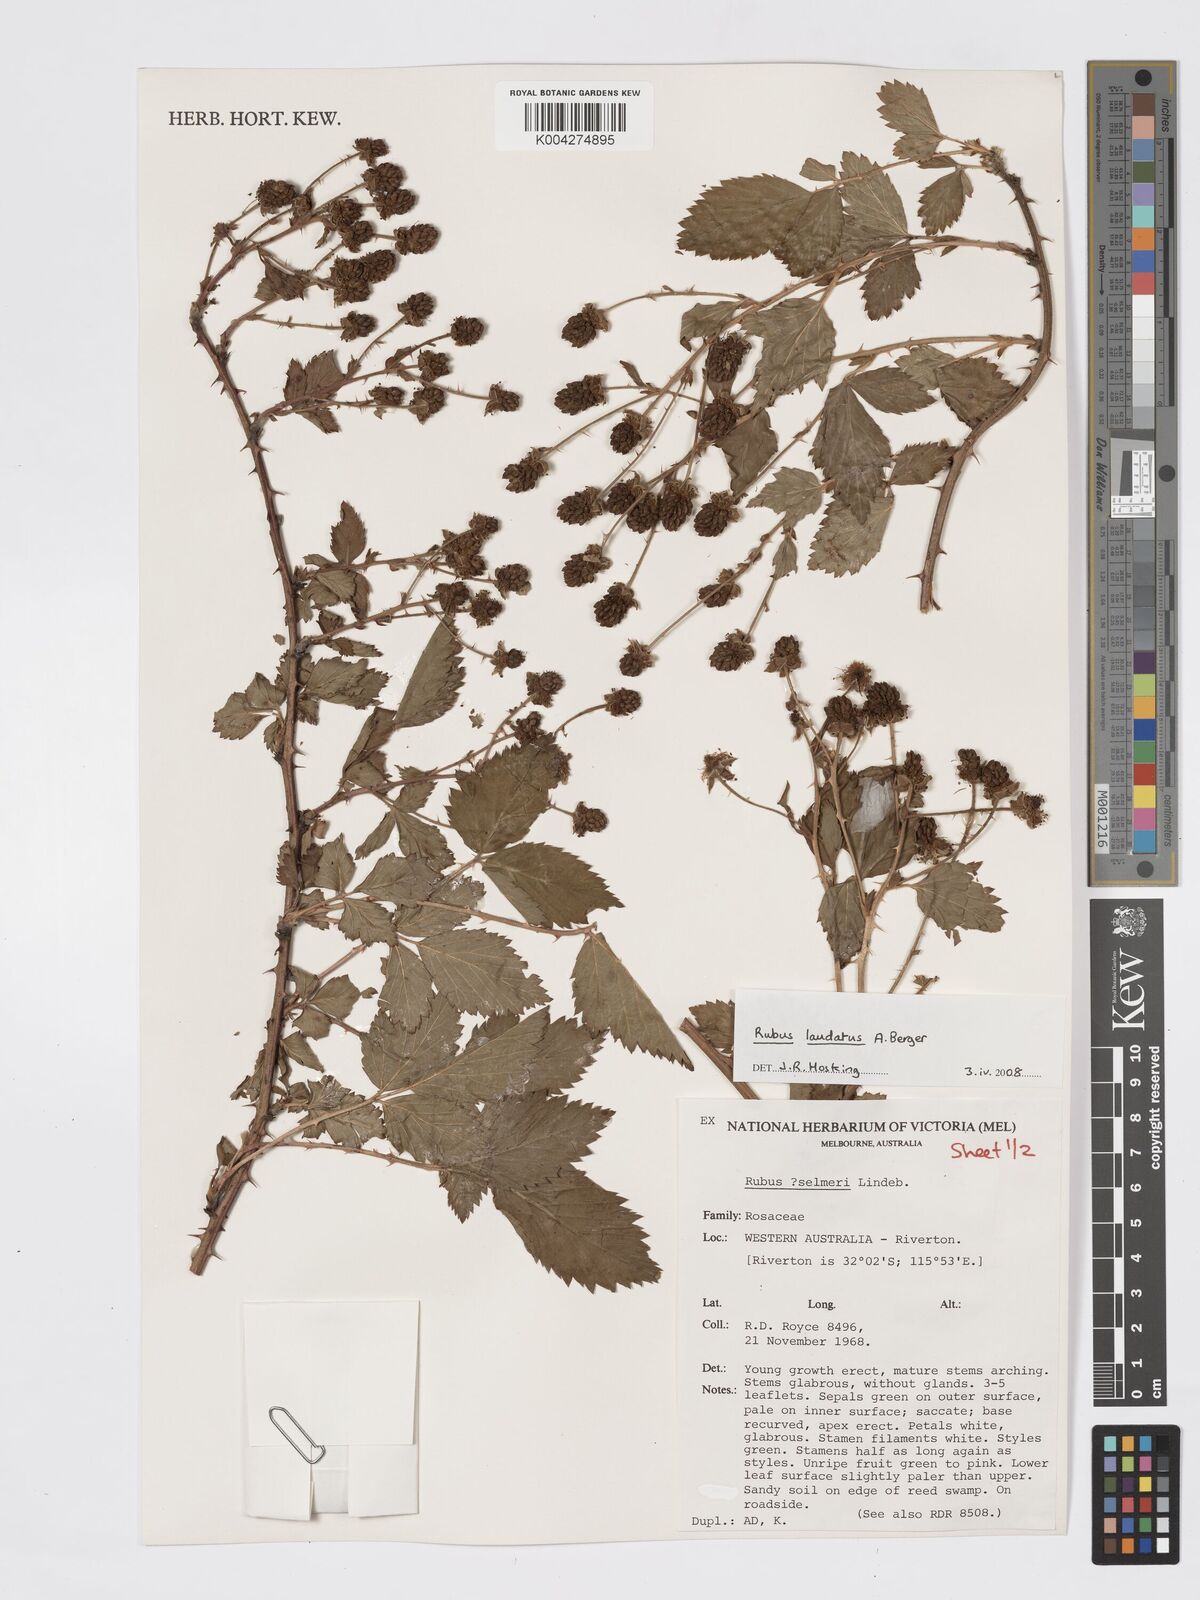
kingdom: Plantae
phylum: Tracheophyta
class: Magnoliopsida
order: Rosales
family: Rosaceae
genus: Rubus
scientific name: Rubus laudatus
